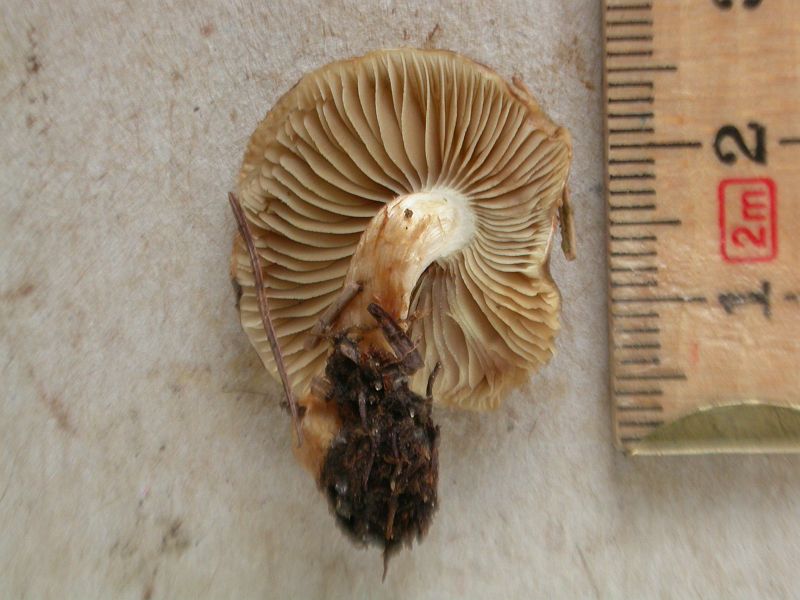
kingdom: Fungi
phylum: Basidiomycota
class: Agaricomycetes
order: Agaricales
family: Strophariaceae
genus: Pholiota
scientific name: Pholiota mixta
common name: nåle-skælhat
